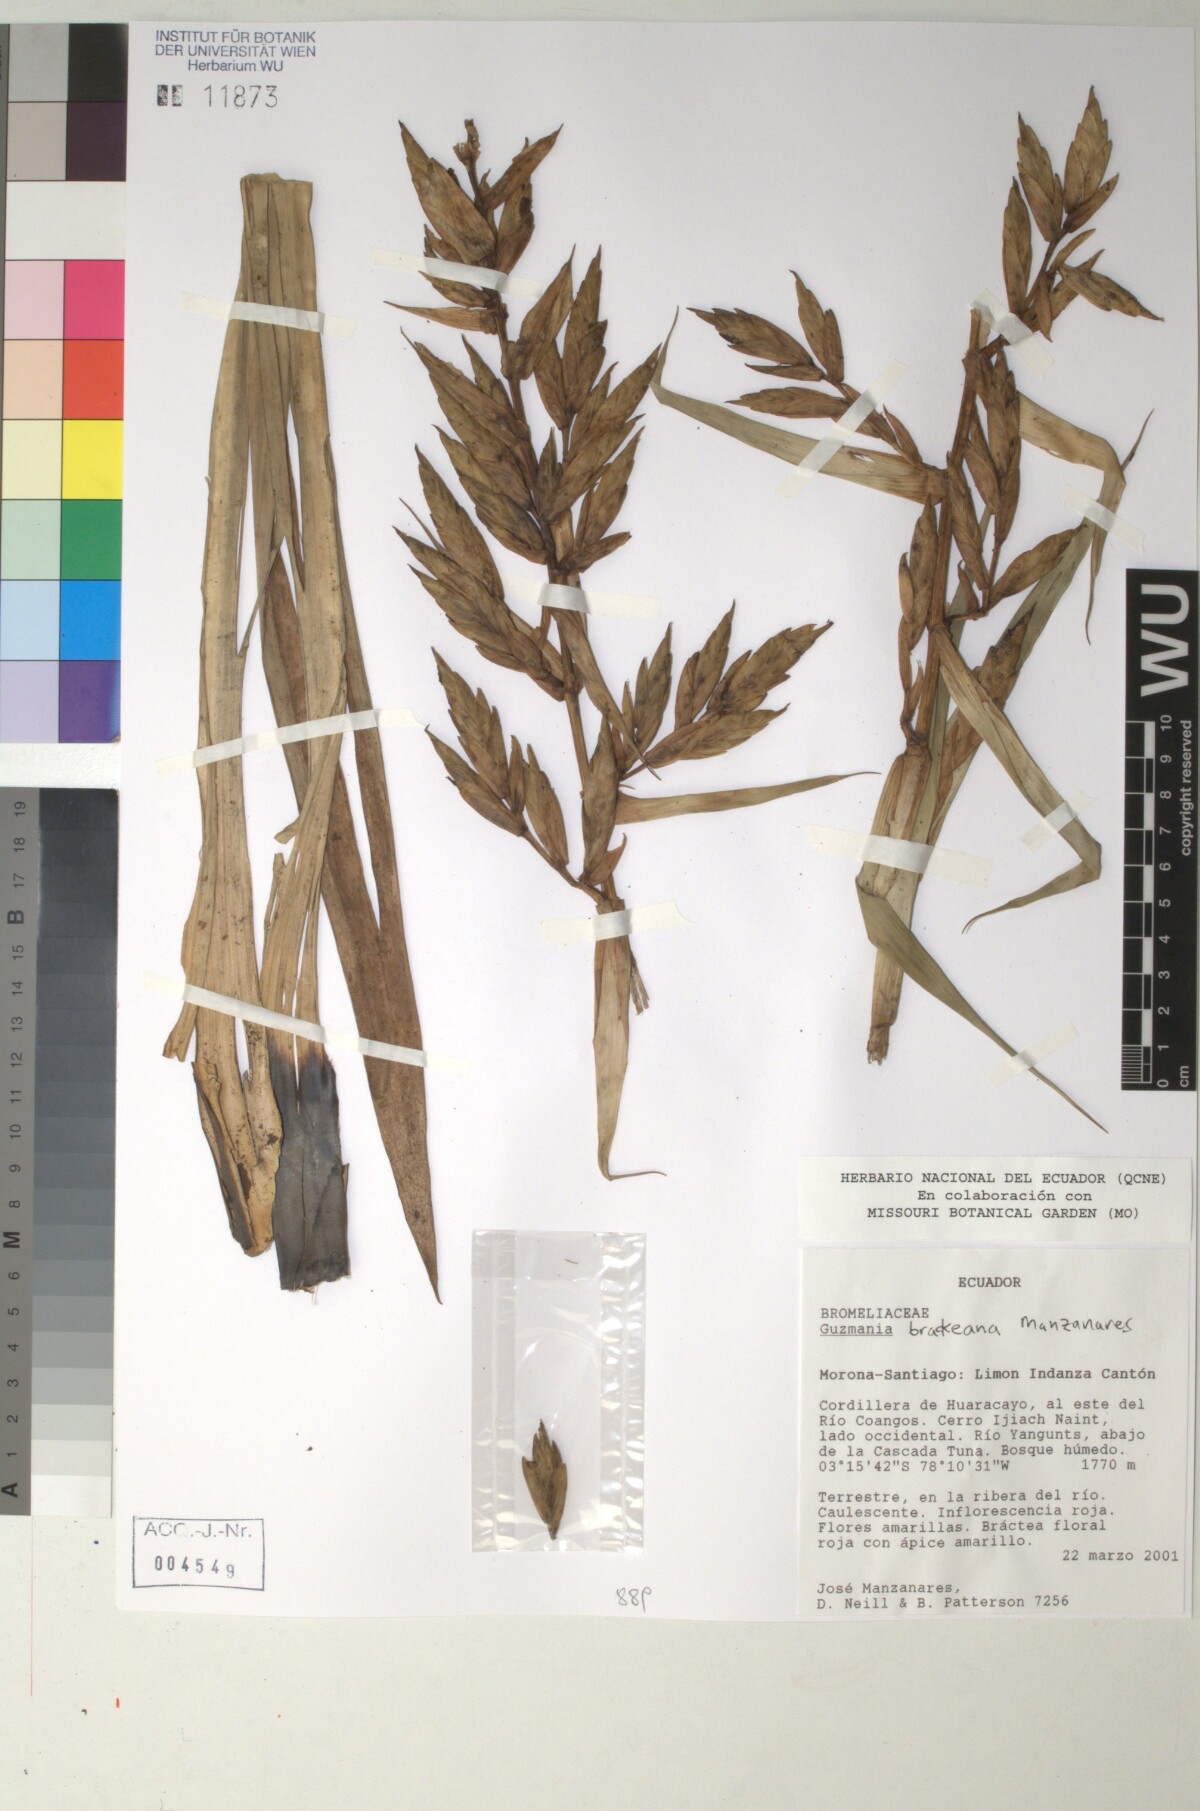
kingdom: Plantae
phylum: Tracheophyta
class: Liliopsida
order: Poales
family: Bromeliaceae
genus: Guzmania
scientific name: Guzmania
